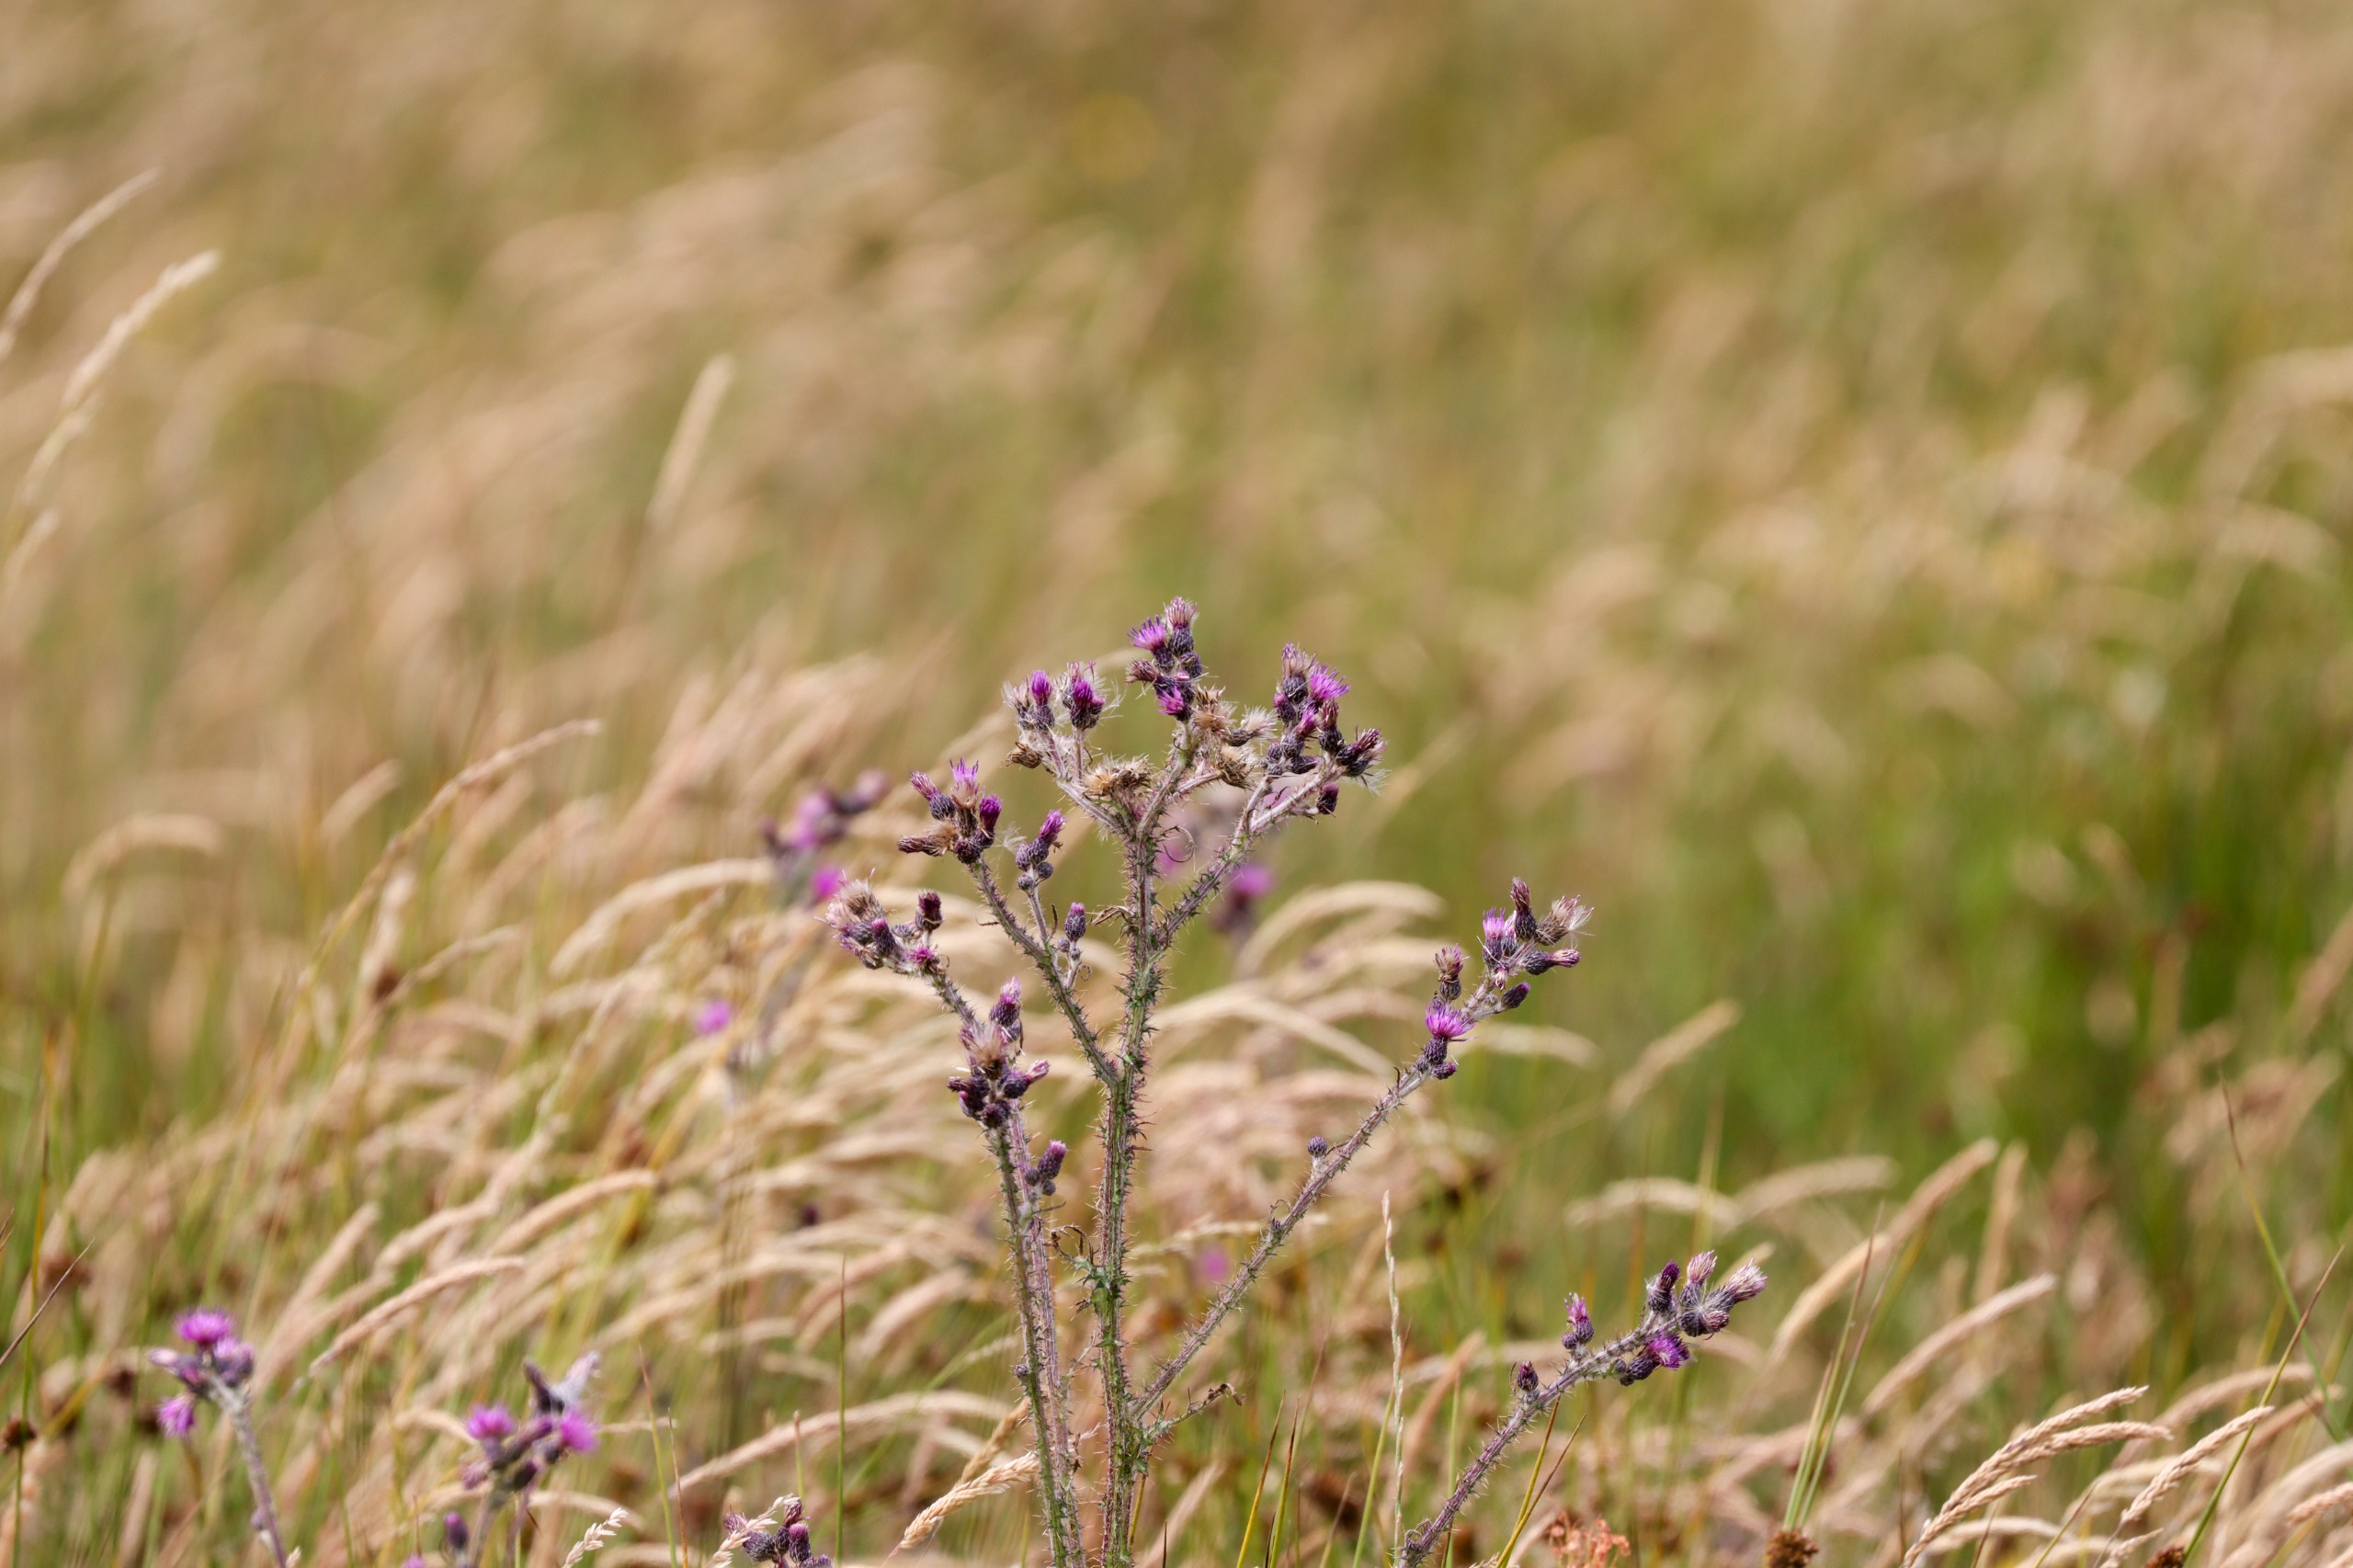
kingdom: Plantae
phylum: Tracheophyta
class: Magnoliopsida
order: Asterales
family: Asteraceae
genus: Cirsium
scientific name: Cirsium palustre
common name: Kær-tidsel
